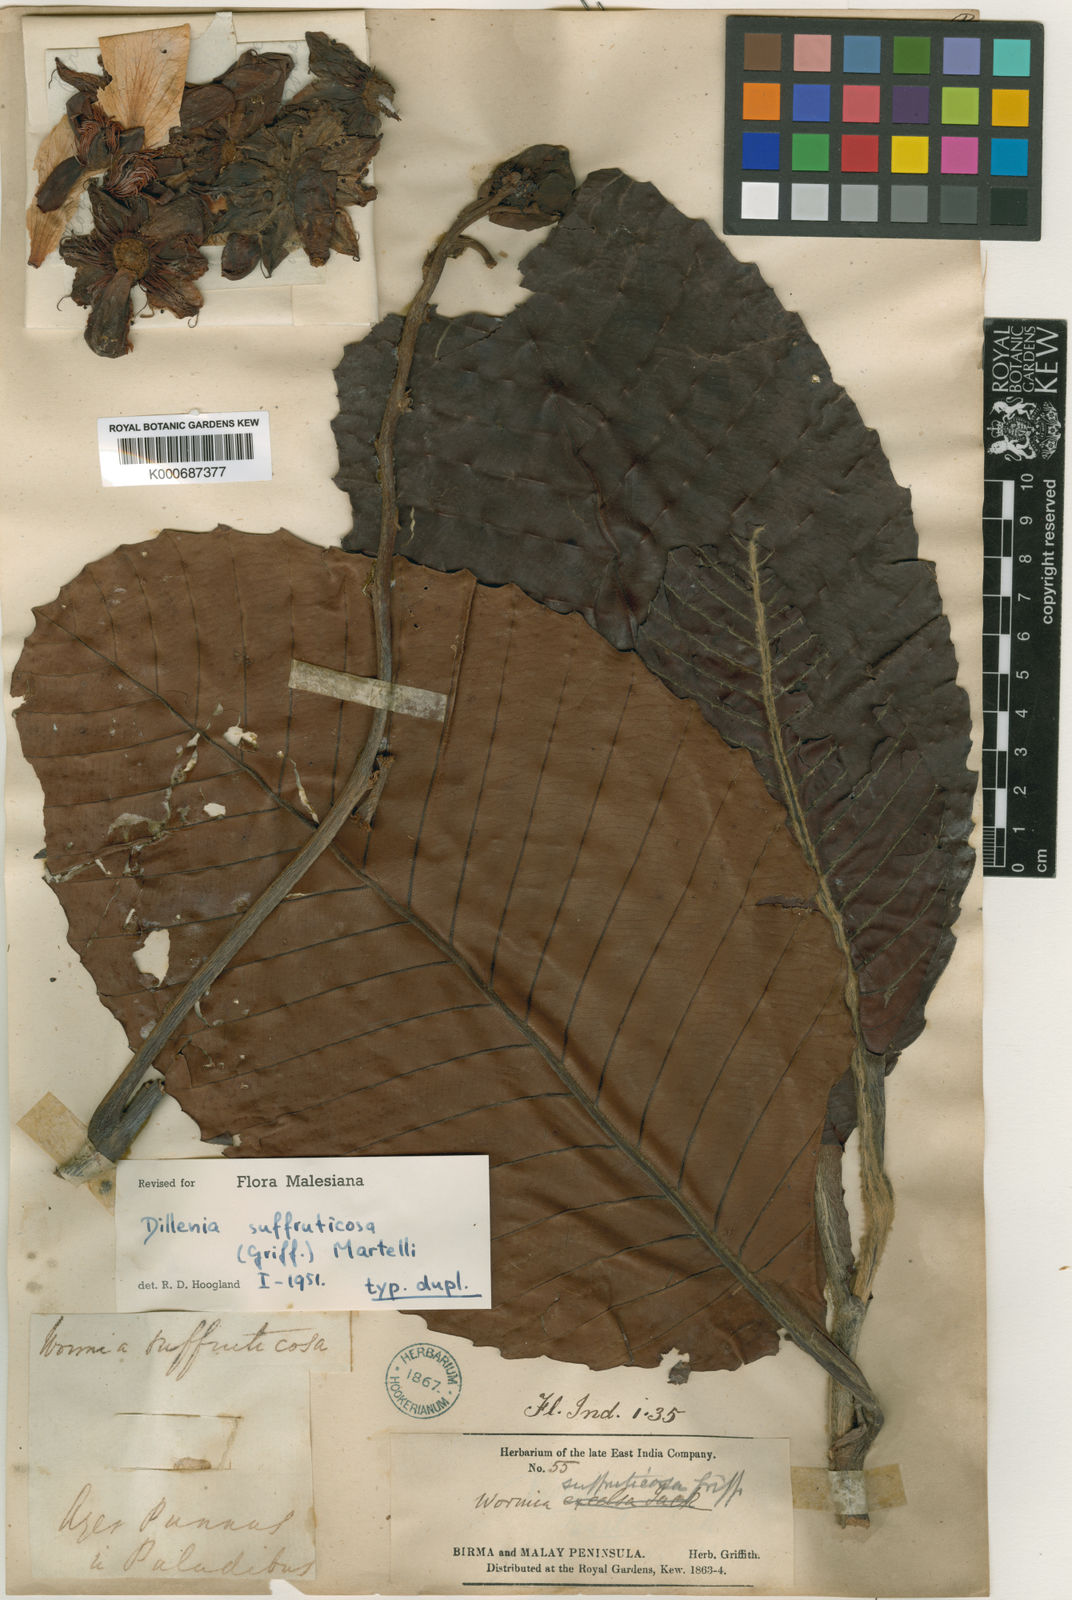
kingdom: Plantae
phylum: Tracheophyta
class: Magnoliopsida
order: Dilleniales
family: Dilleniaceae
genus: Dillenia
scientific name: Dillenia suffruticosa
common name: Shrubby dillenia
